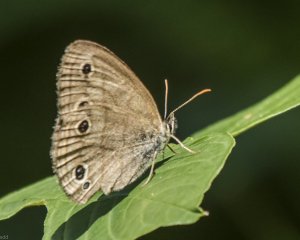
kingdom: Animalia
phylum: Arthropoda
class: Insecta
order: Lepidoptera
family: Nymphalidae
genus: Euptychia
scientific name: Euptychia cymela
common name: Little Wood Satyr
